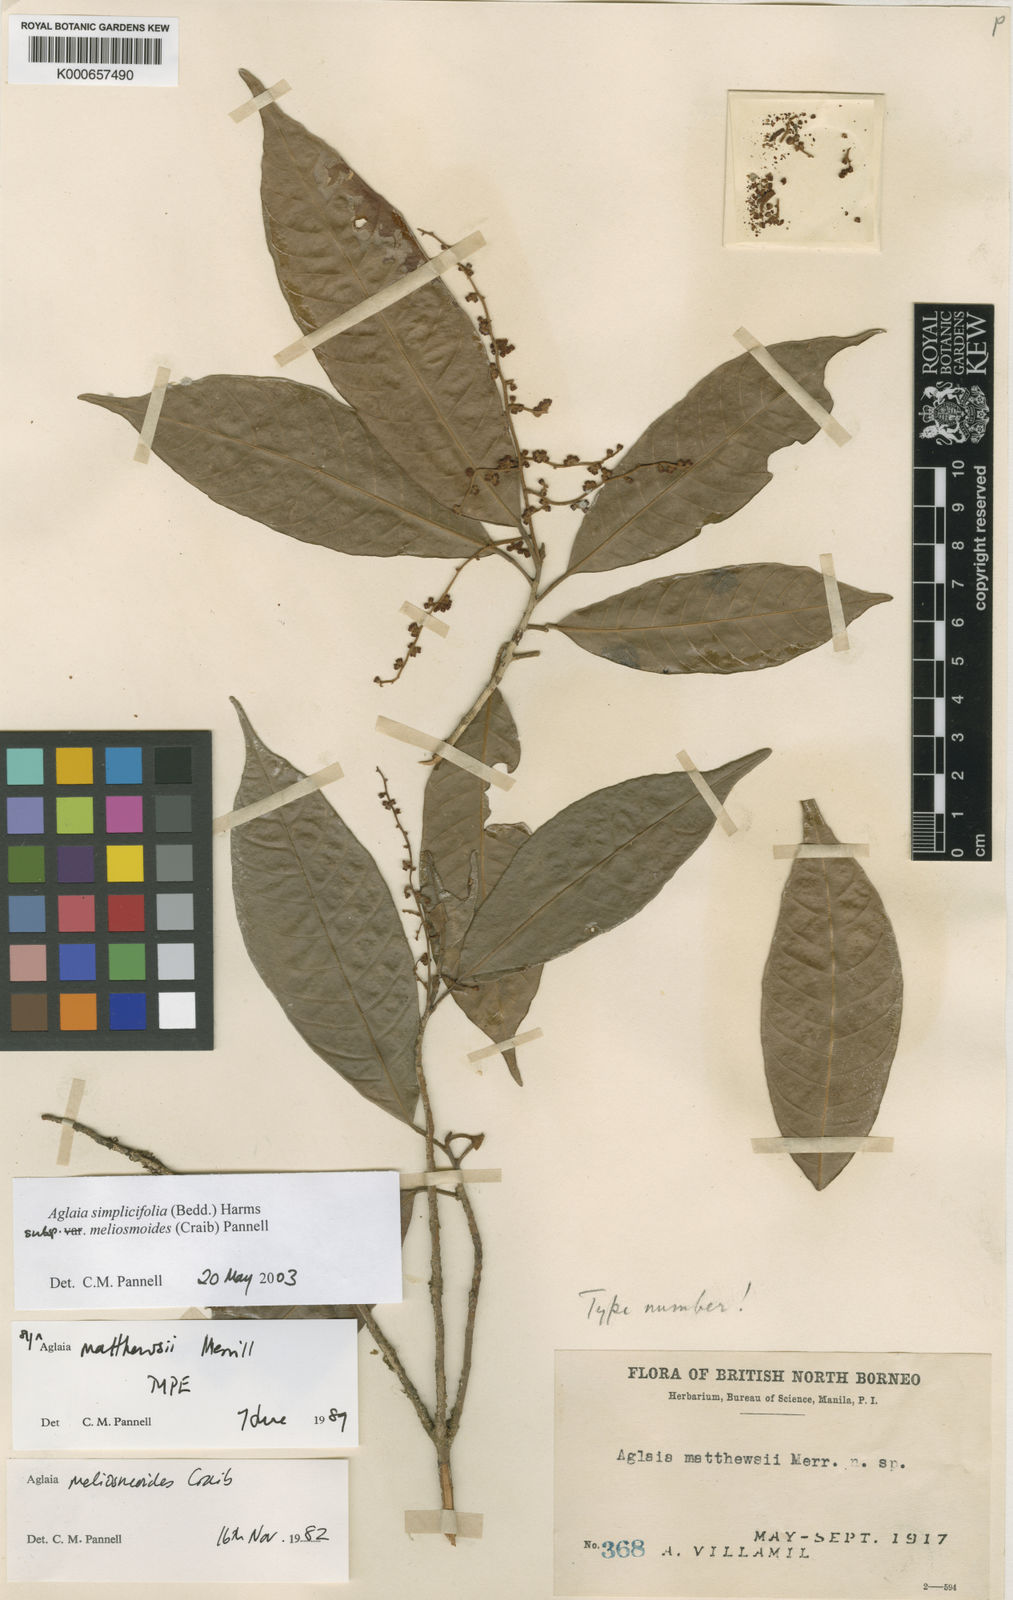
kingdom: Plantae
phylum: Tracheophyta
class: Magnoliopsida
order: Sapindales
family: Meliaceae
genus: Aglaia
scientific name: Aglaia simplicifolia
